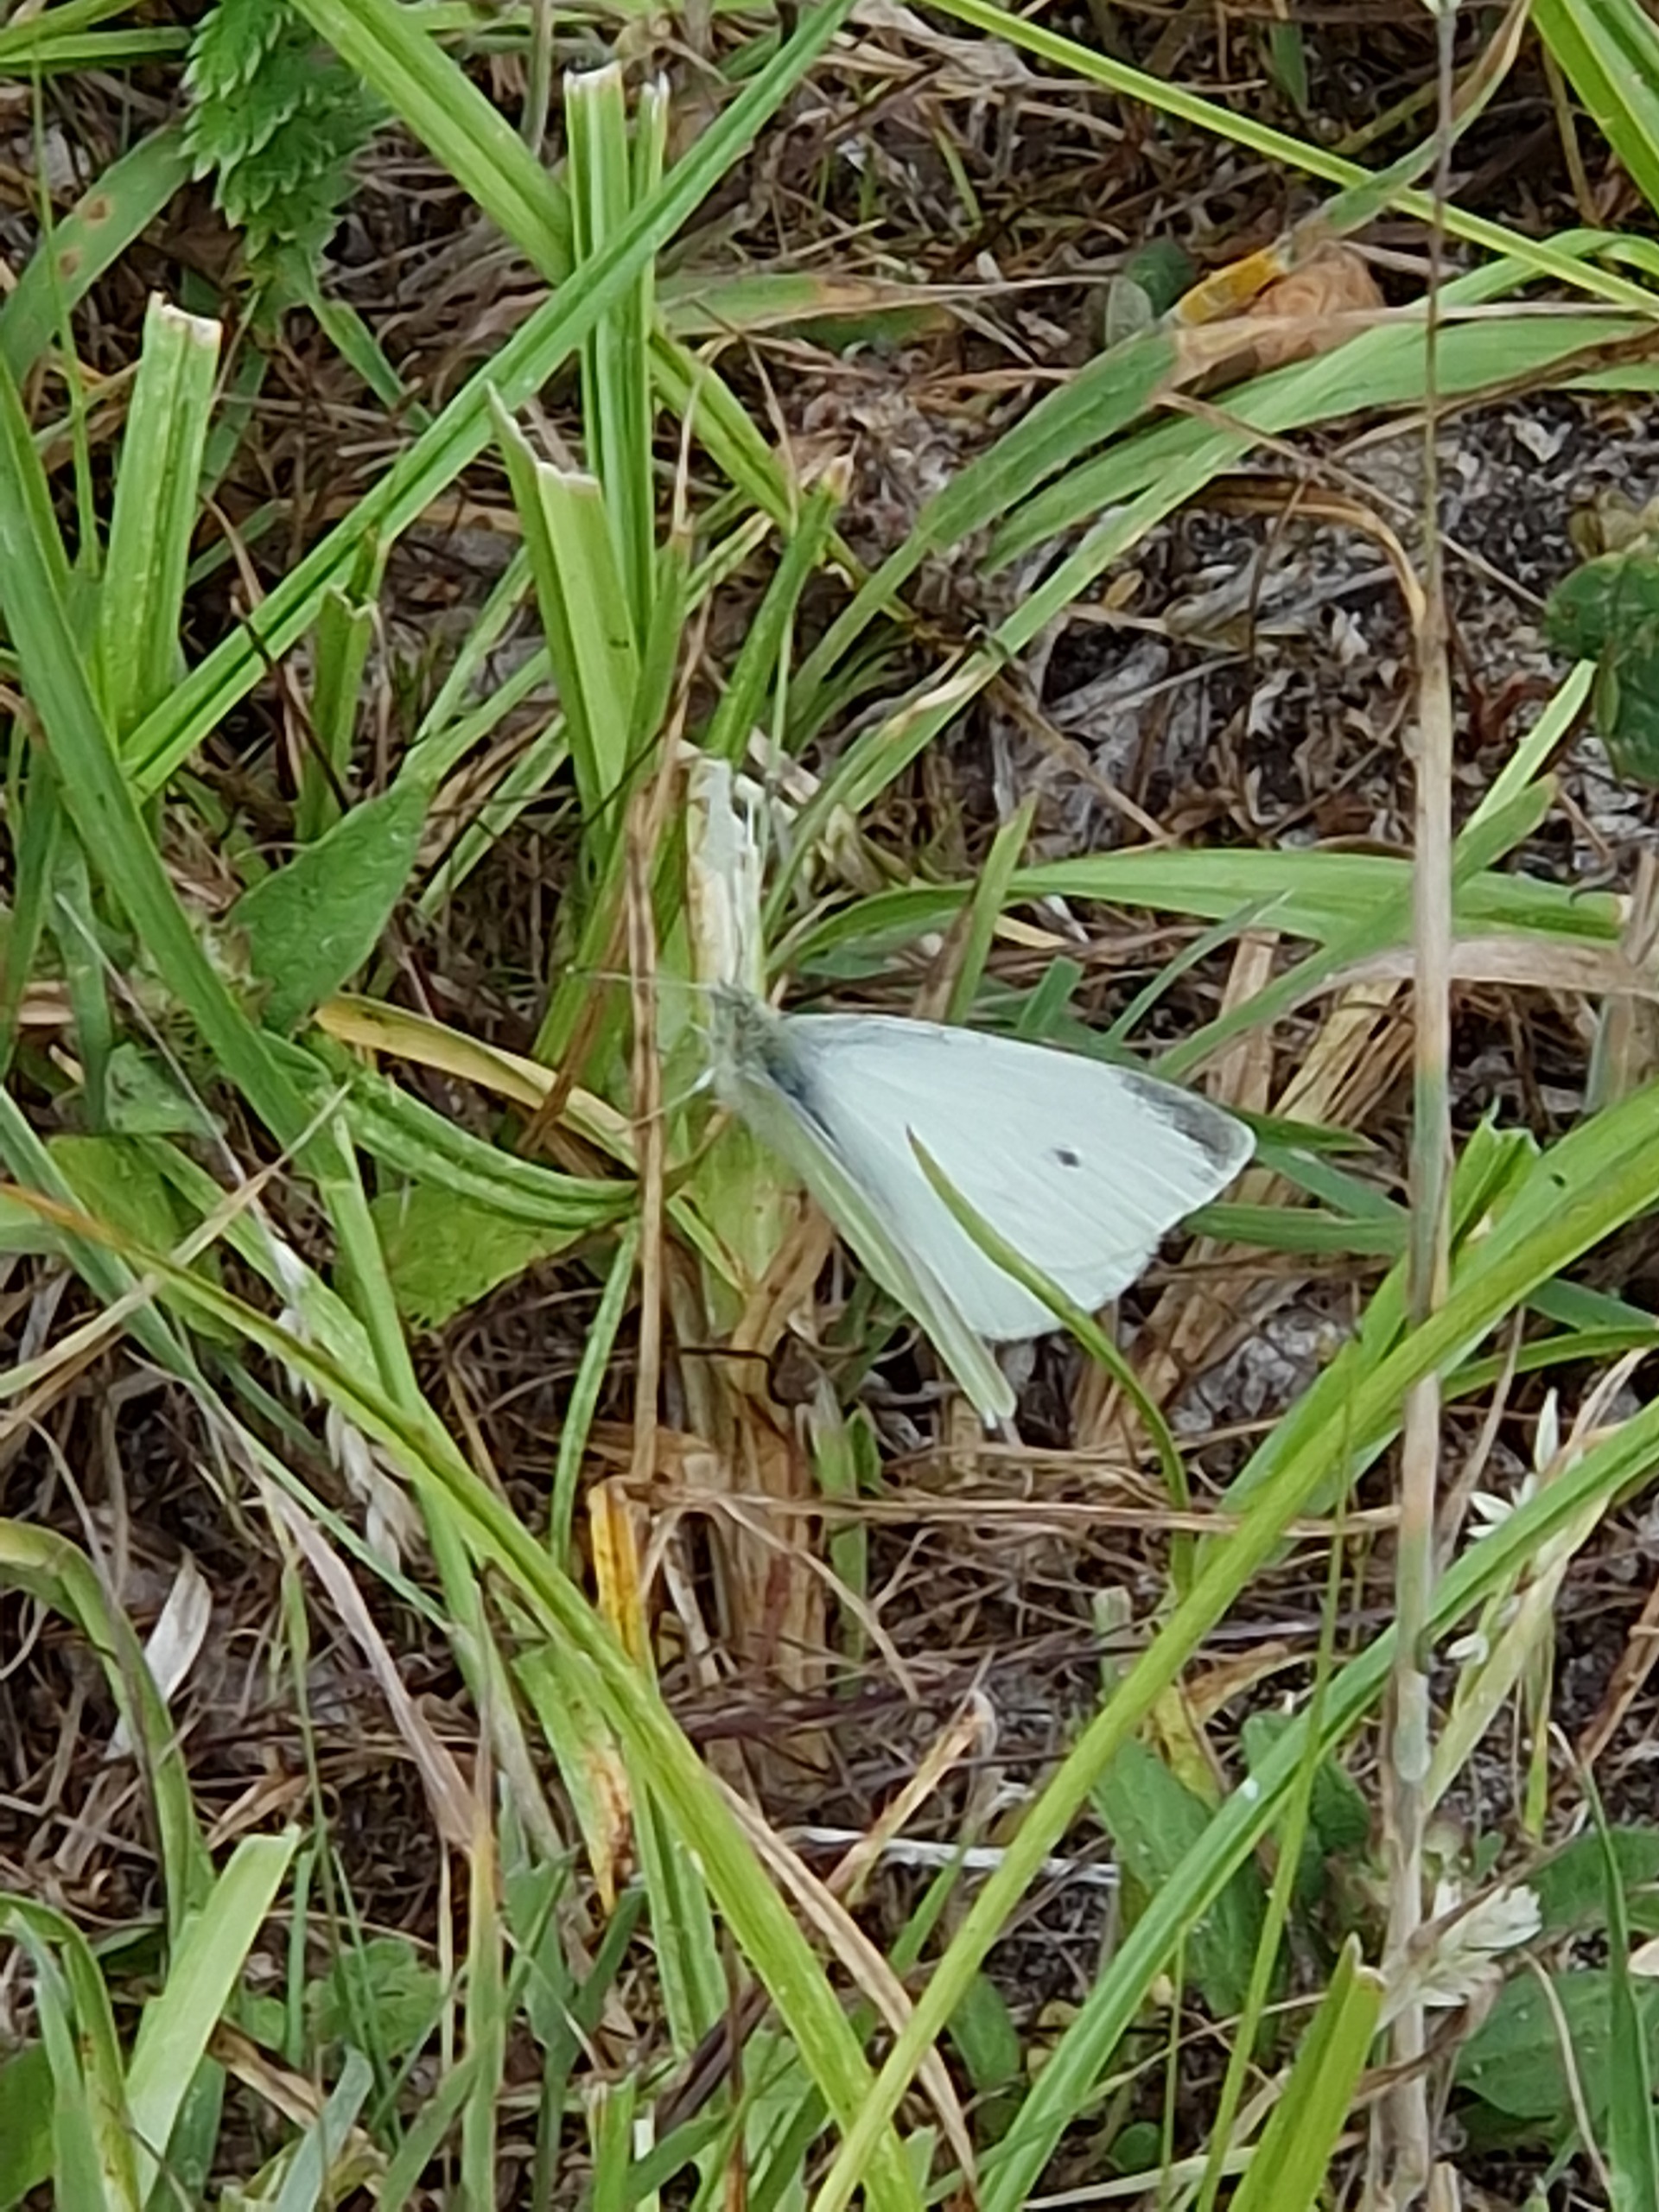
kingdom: Animalia
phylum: Arthropoda
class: Insecta
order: Lepidoptera
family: Pieridae
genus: Pieris
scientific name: Pieris rapae
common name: Lille kålsommerfugl
